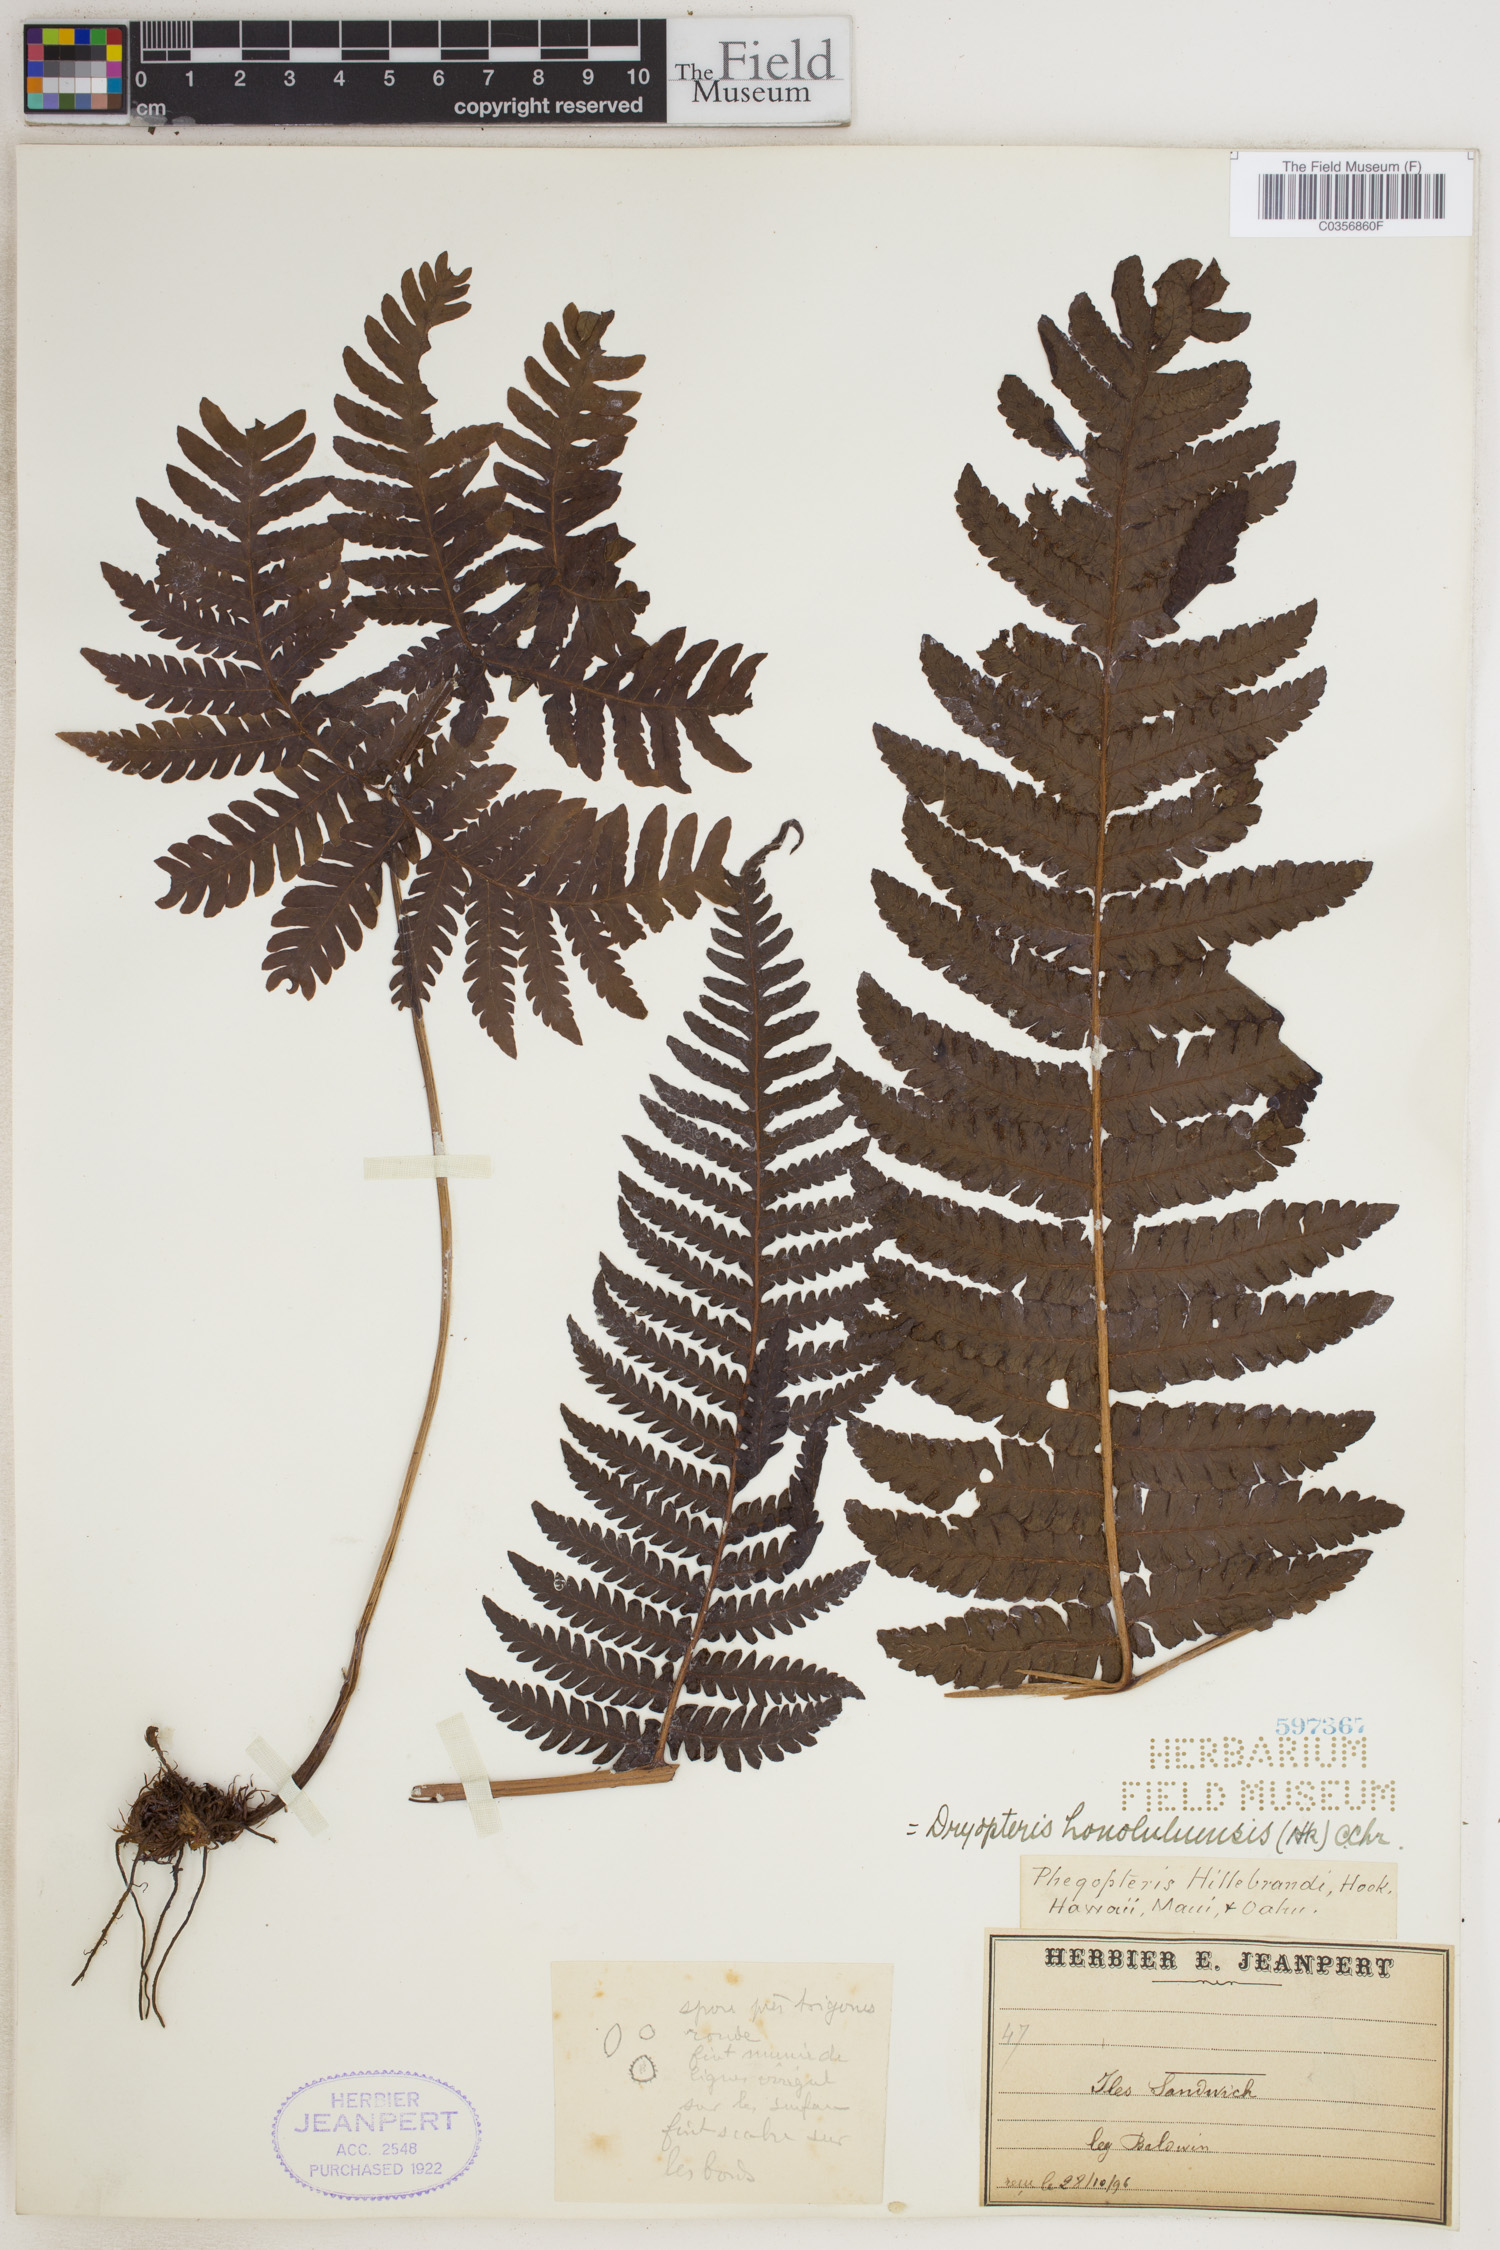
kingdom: Plantae
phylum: Tracheophyta
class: Polypodiopsida
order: Polypodiales
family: Dryopteridaceae
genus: Ctenitis
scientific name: Ctenitis latifrons
